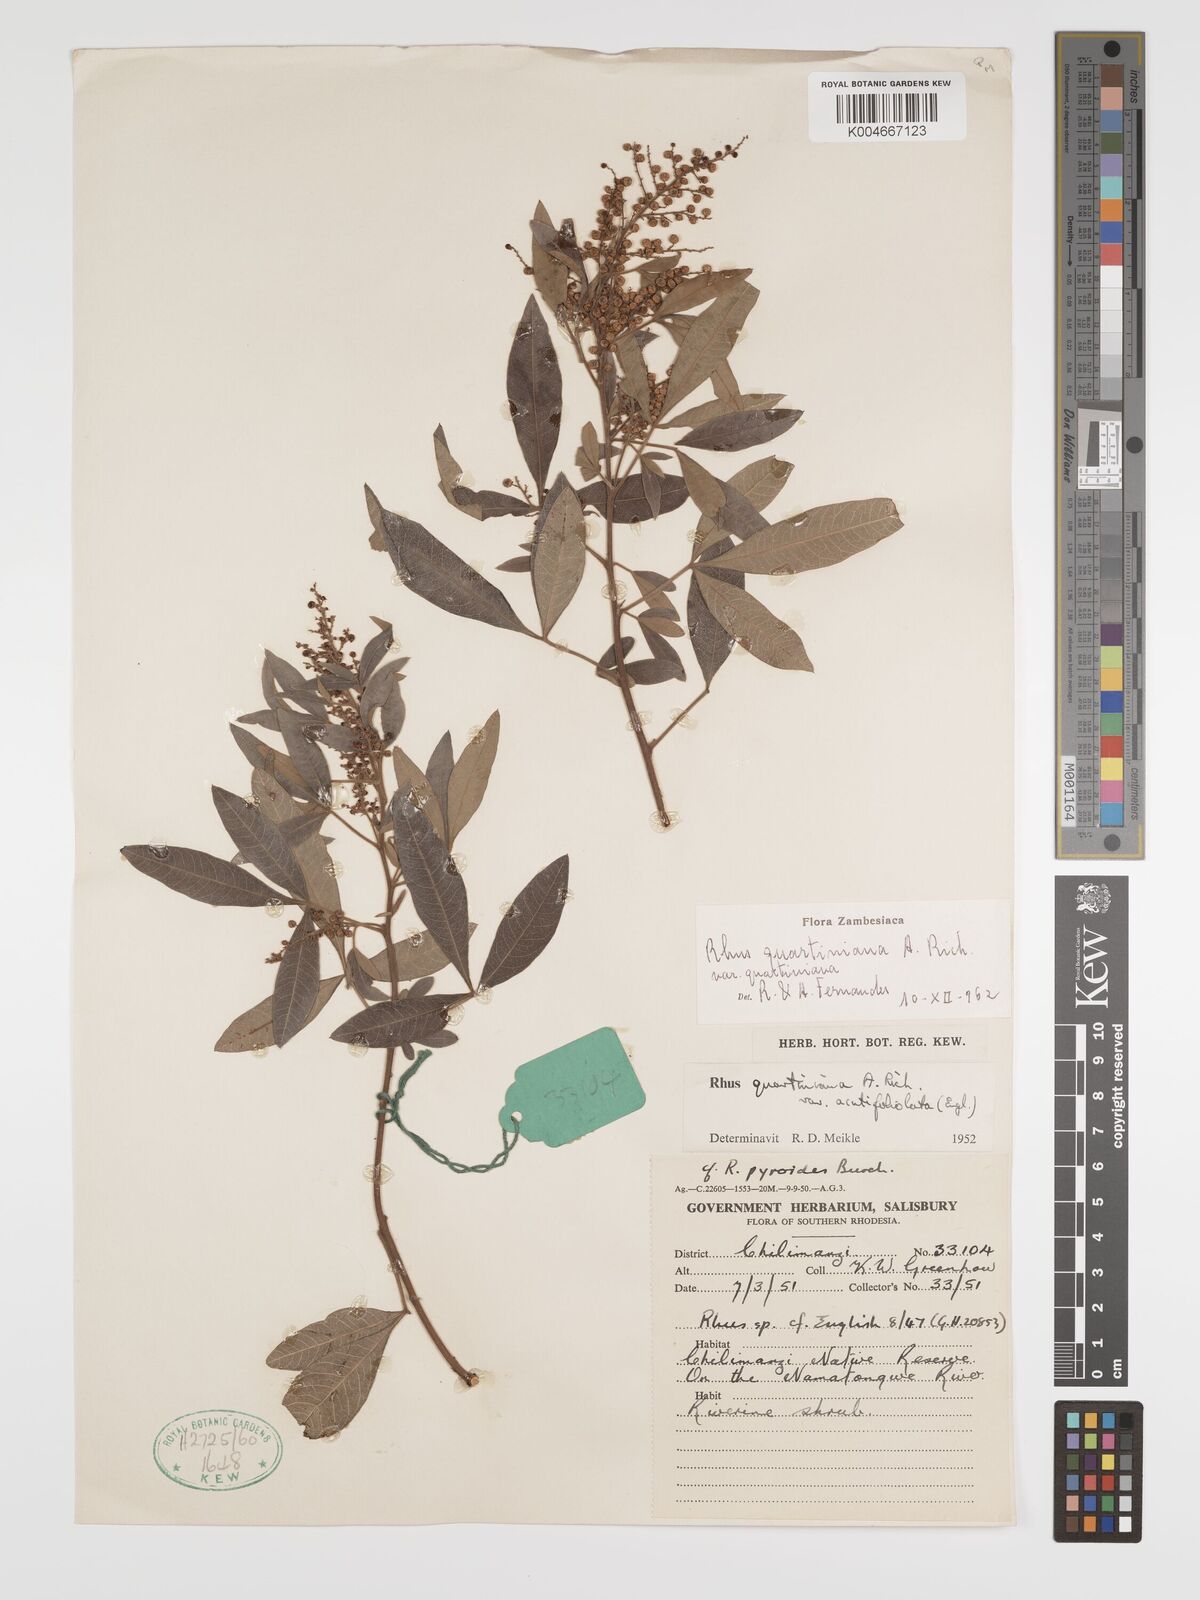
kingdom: Plantae
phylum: Tracheophyta
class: Magnoliopsida
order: Sapindales
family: Anacardiaceae
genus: Searsia
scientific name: Searsia quartiniana
